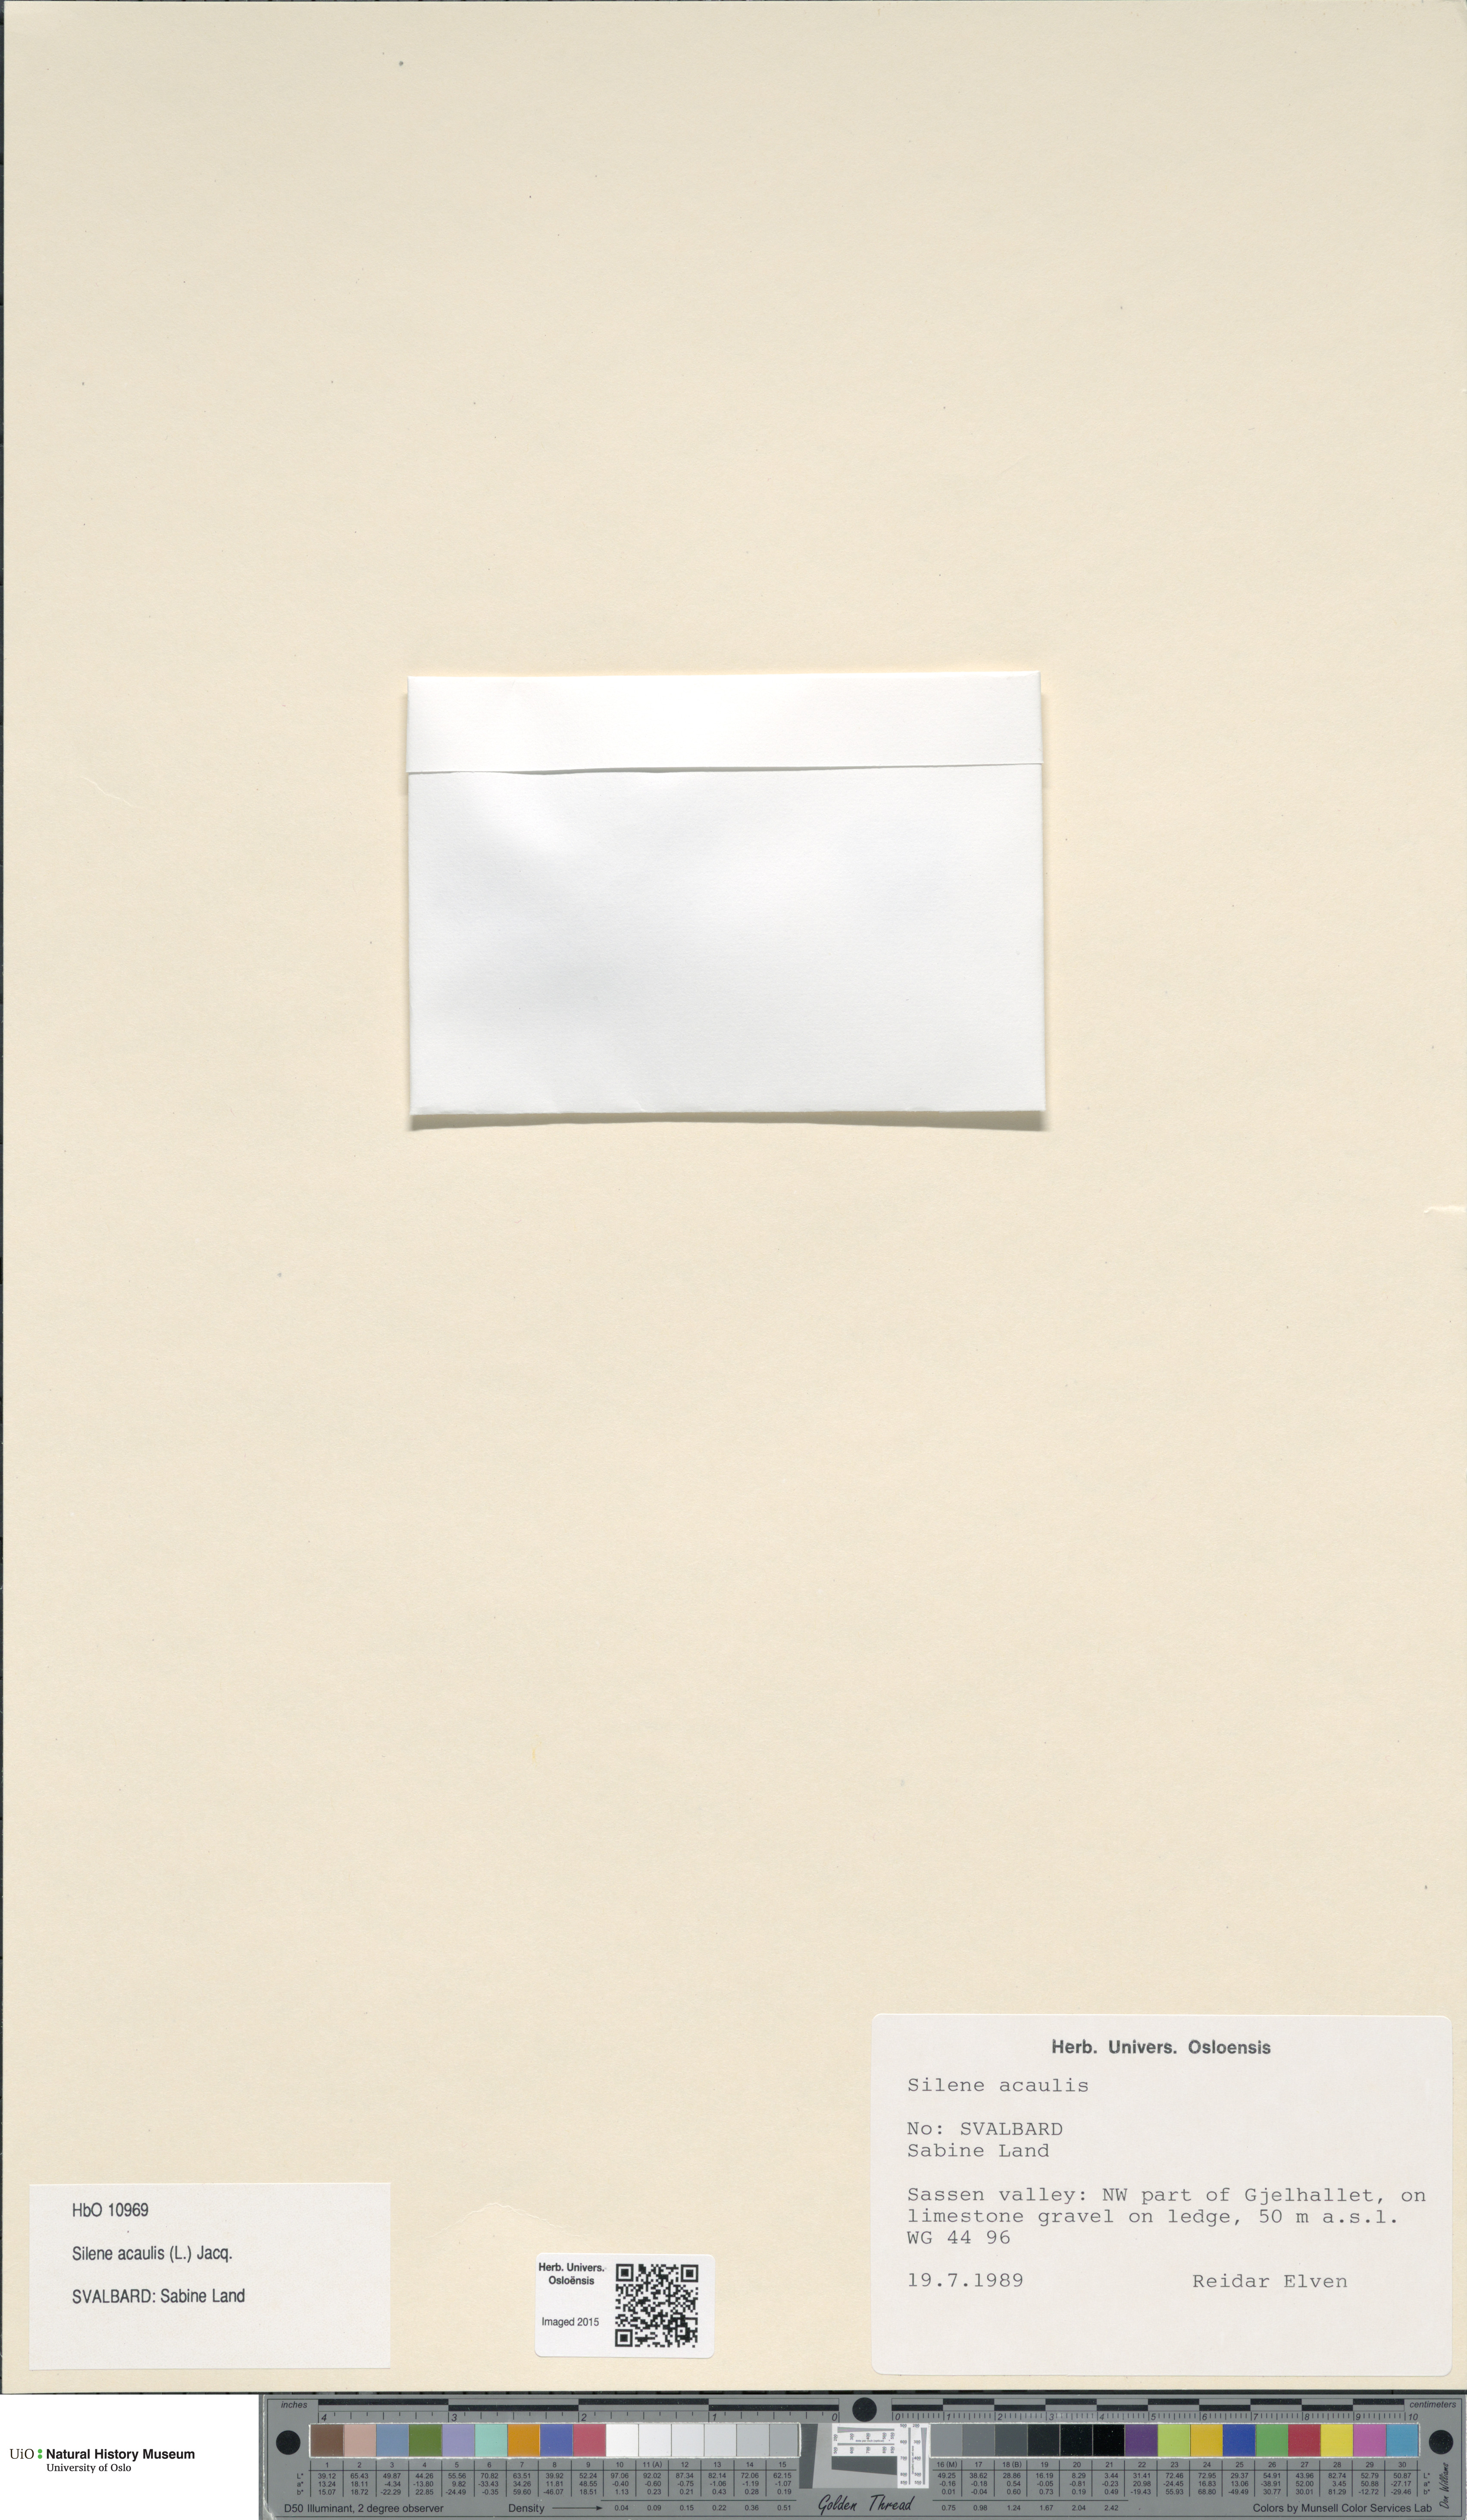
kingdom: Plantae
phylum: Tracheophyta
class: Magnoliopsida
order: Caryophyllales
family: Caryophyllaceae
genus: Silene
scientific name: Silene acaulis
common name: Moss campion
